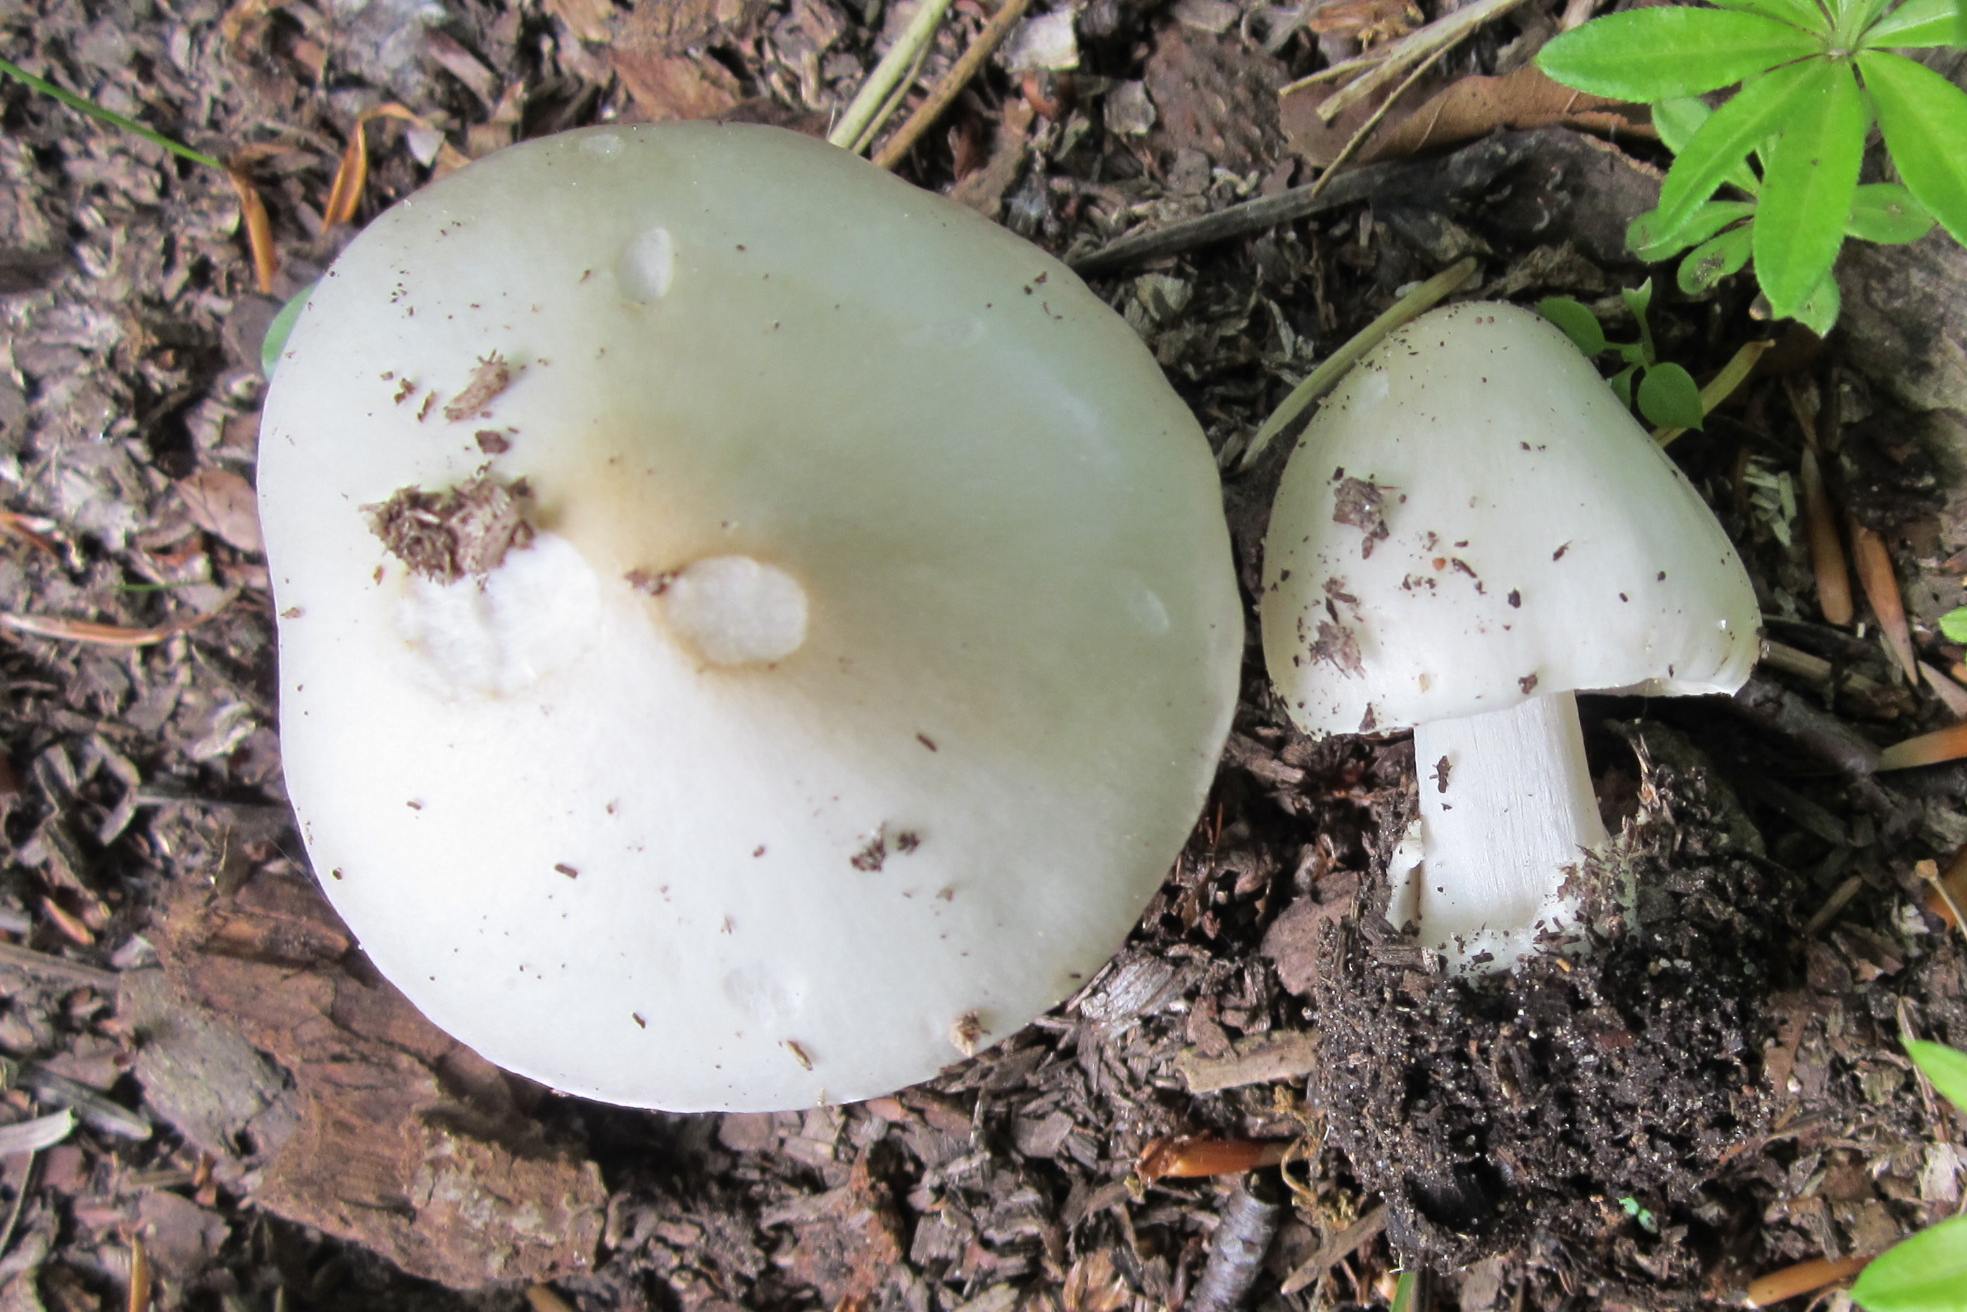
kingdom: Fungi
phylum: Basidiomycota
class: Agaricomycetes
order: Agaricales
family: Pluteaceae
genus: Volvopluteus
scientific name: Volvopluteus gloiocephalus
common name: høj posesvamp
